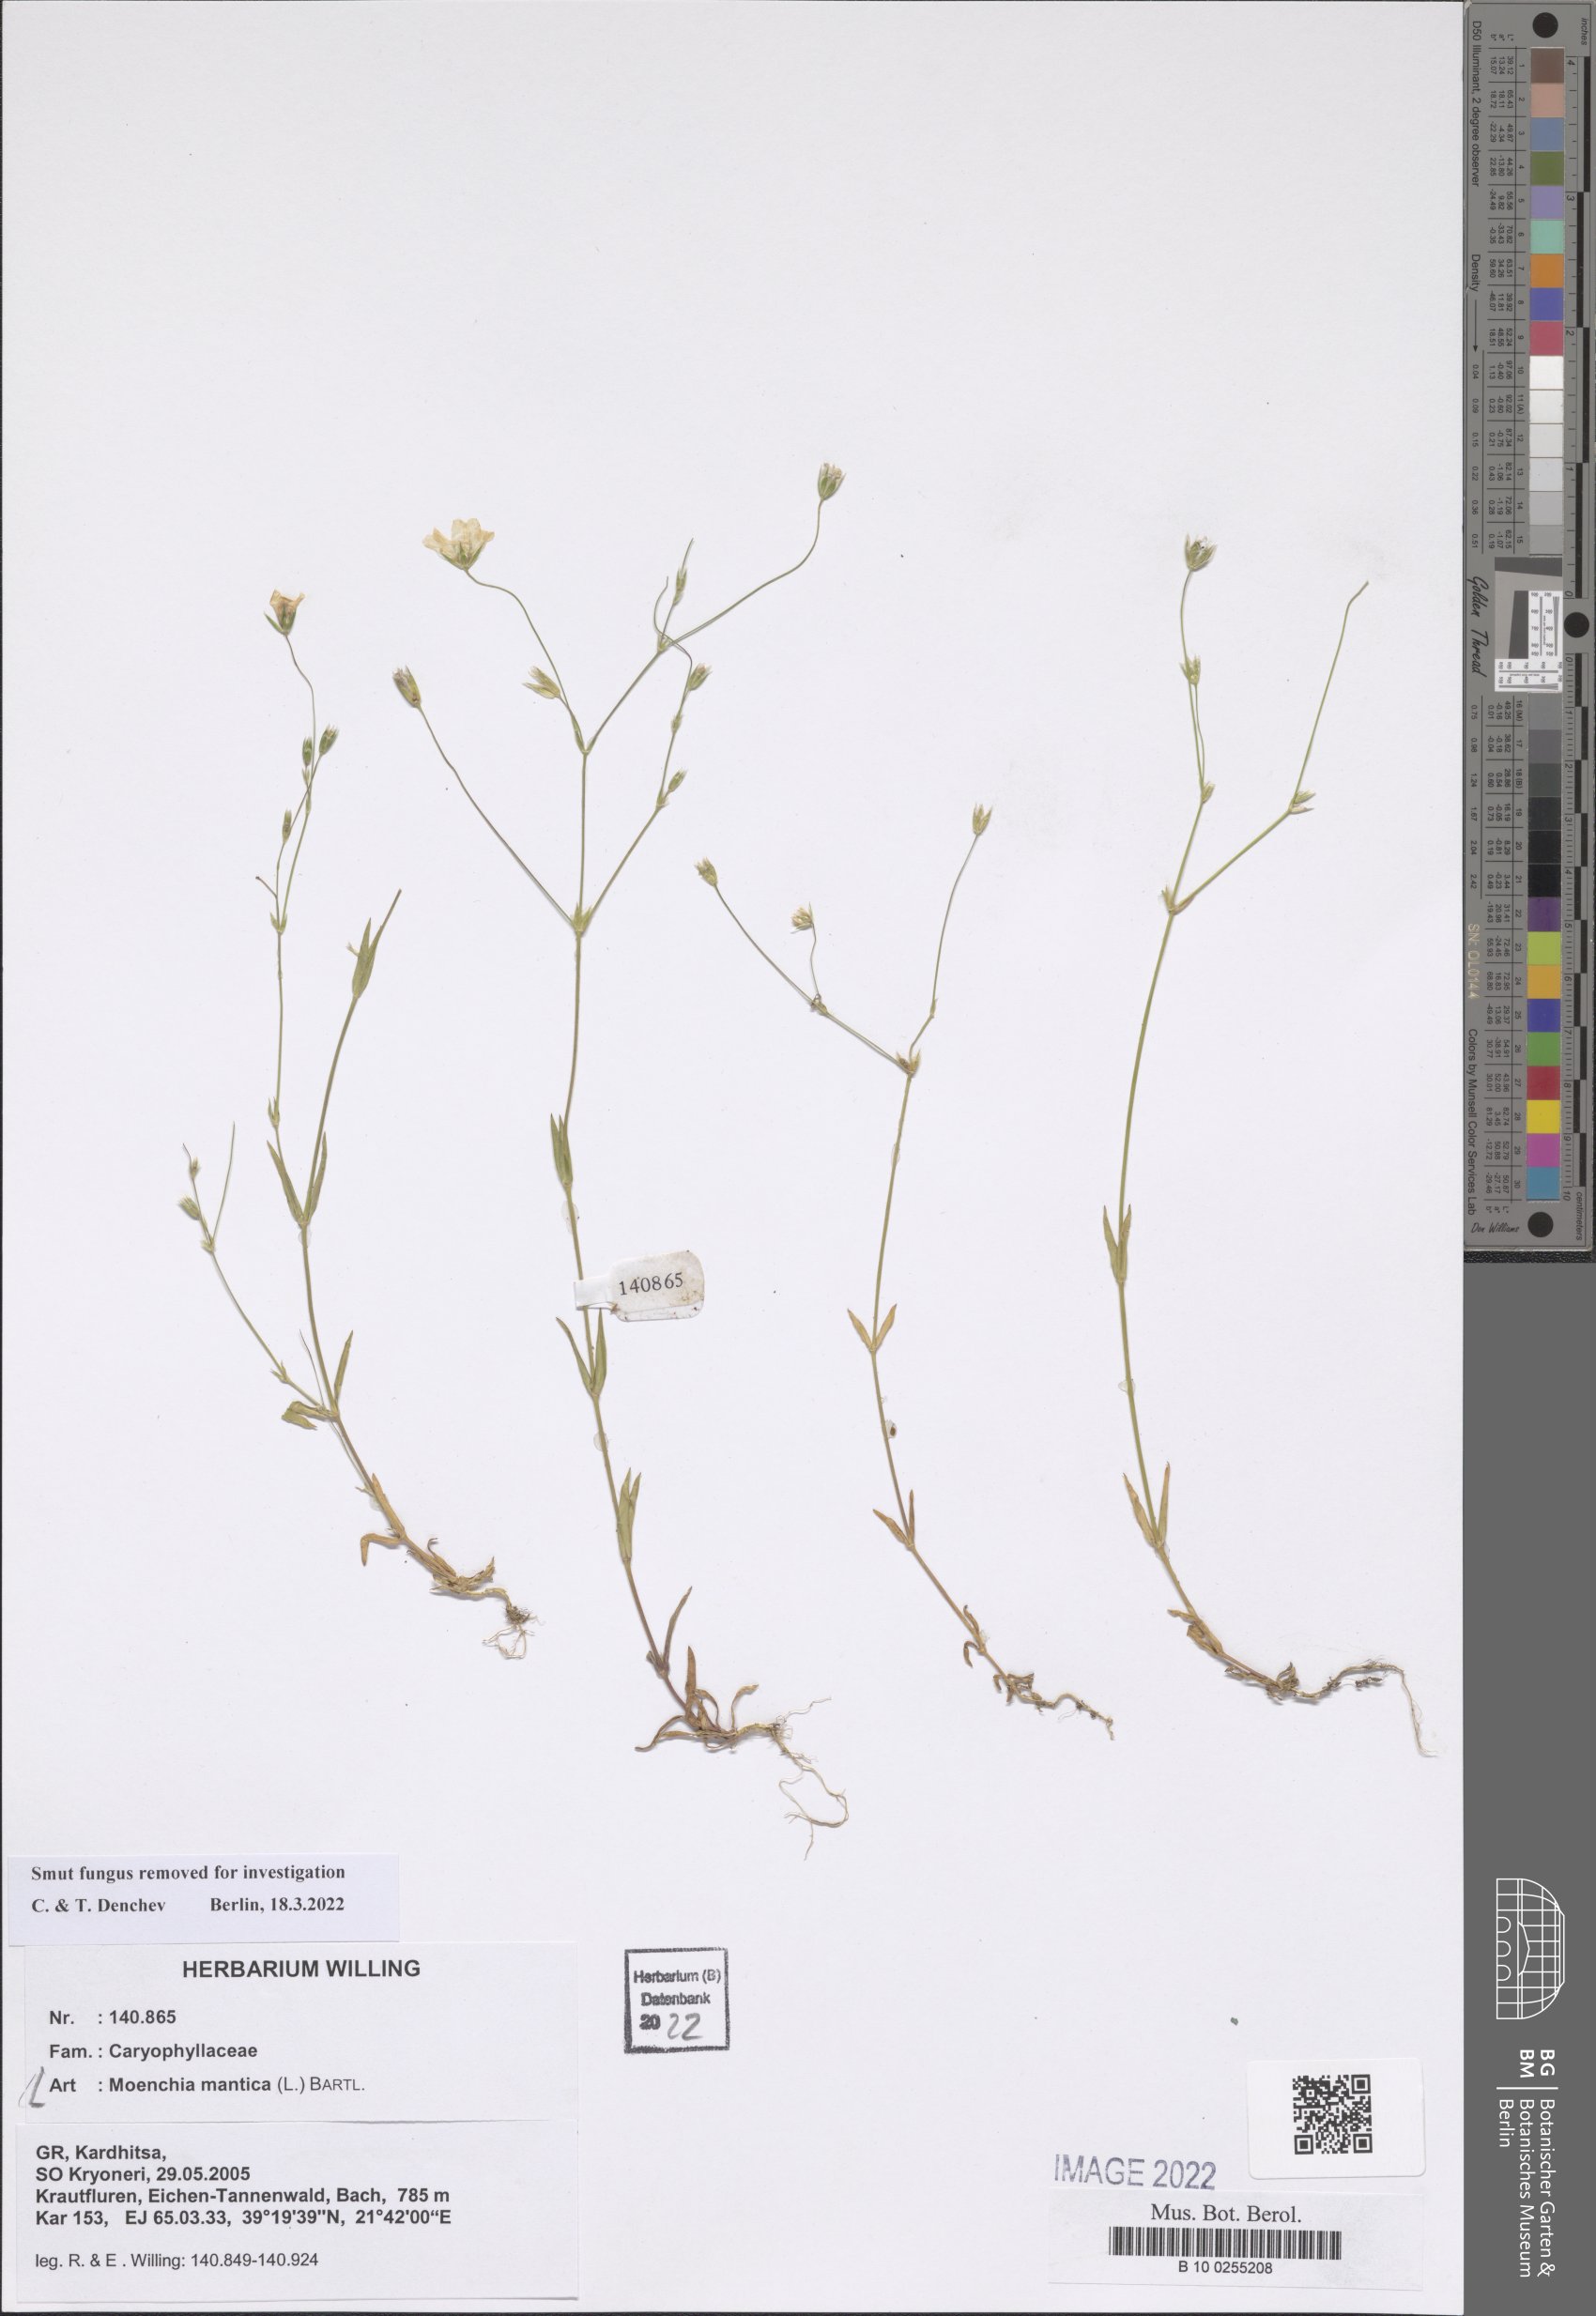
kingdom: Plantae
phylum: Tracheophyta
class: Magnoliopsida
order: Caryophyllales
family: Caryophyllaceae
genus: Moenchia
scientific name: Moenchia mantica
